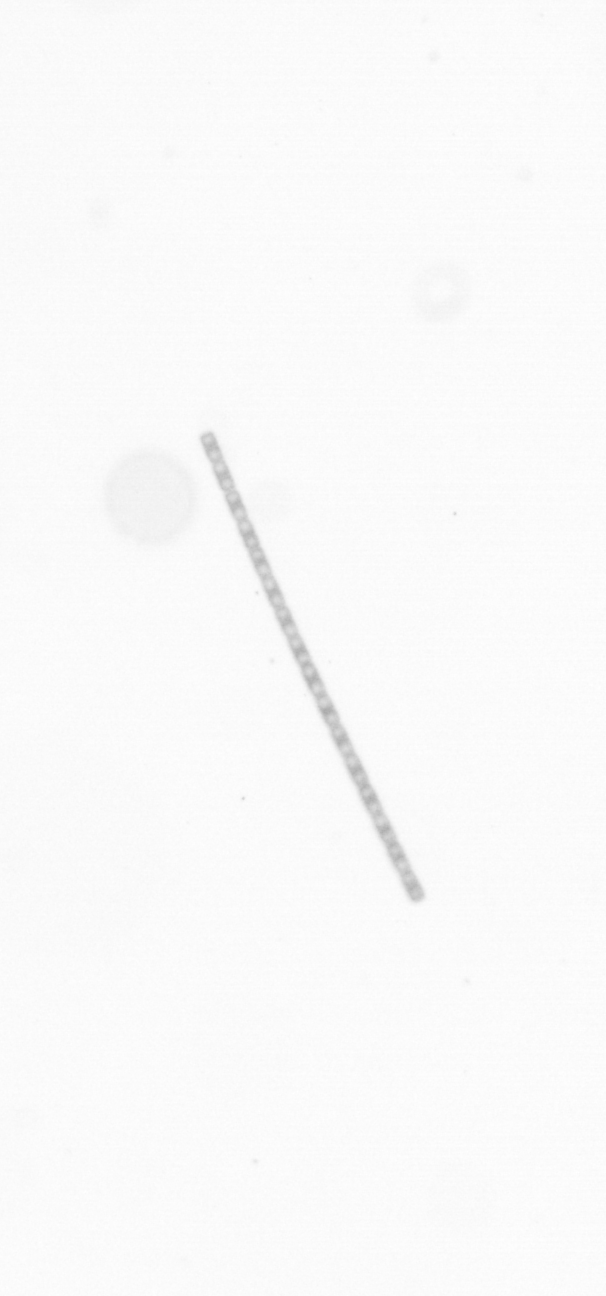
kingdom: Chromista
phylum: Ochrophyta
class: Bacillariophyceae
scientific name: Bacillariophyceae
